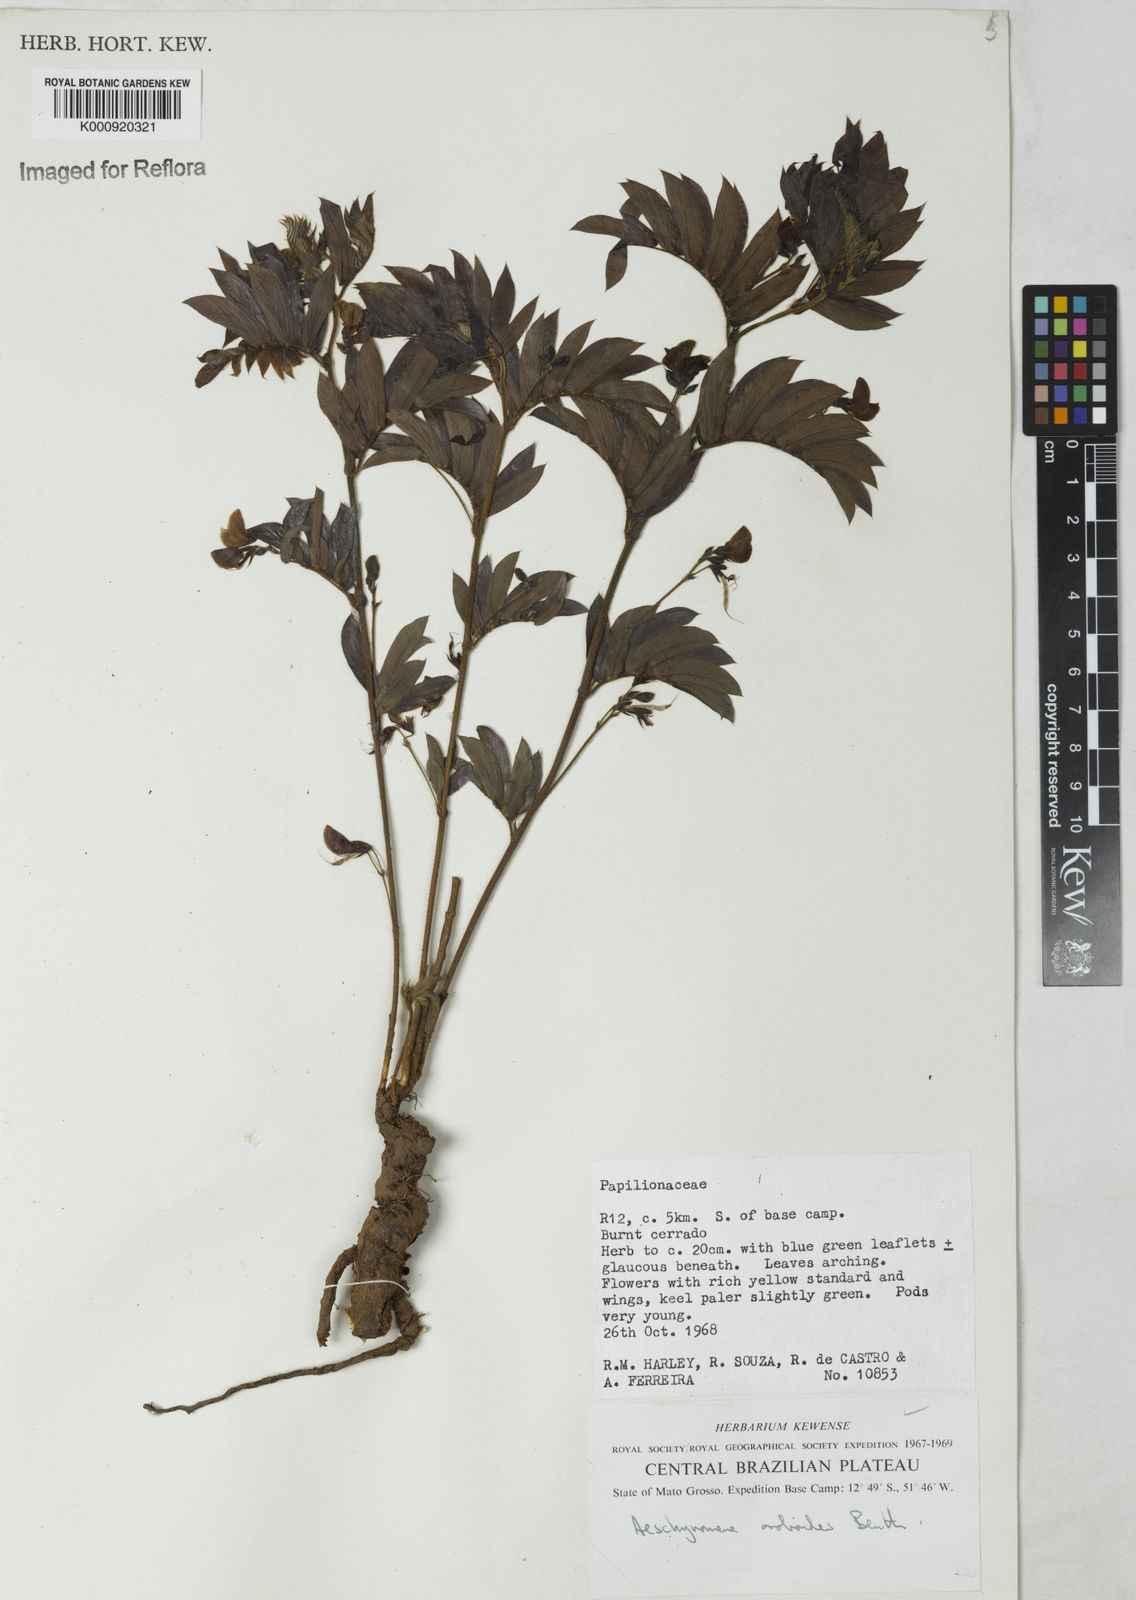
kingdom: Plantae
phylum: Tracheophyta
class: Magnoliopsida
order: Fabales
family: Fabaceae
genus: Ctenodon
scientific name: Ctenodon oroboides
